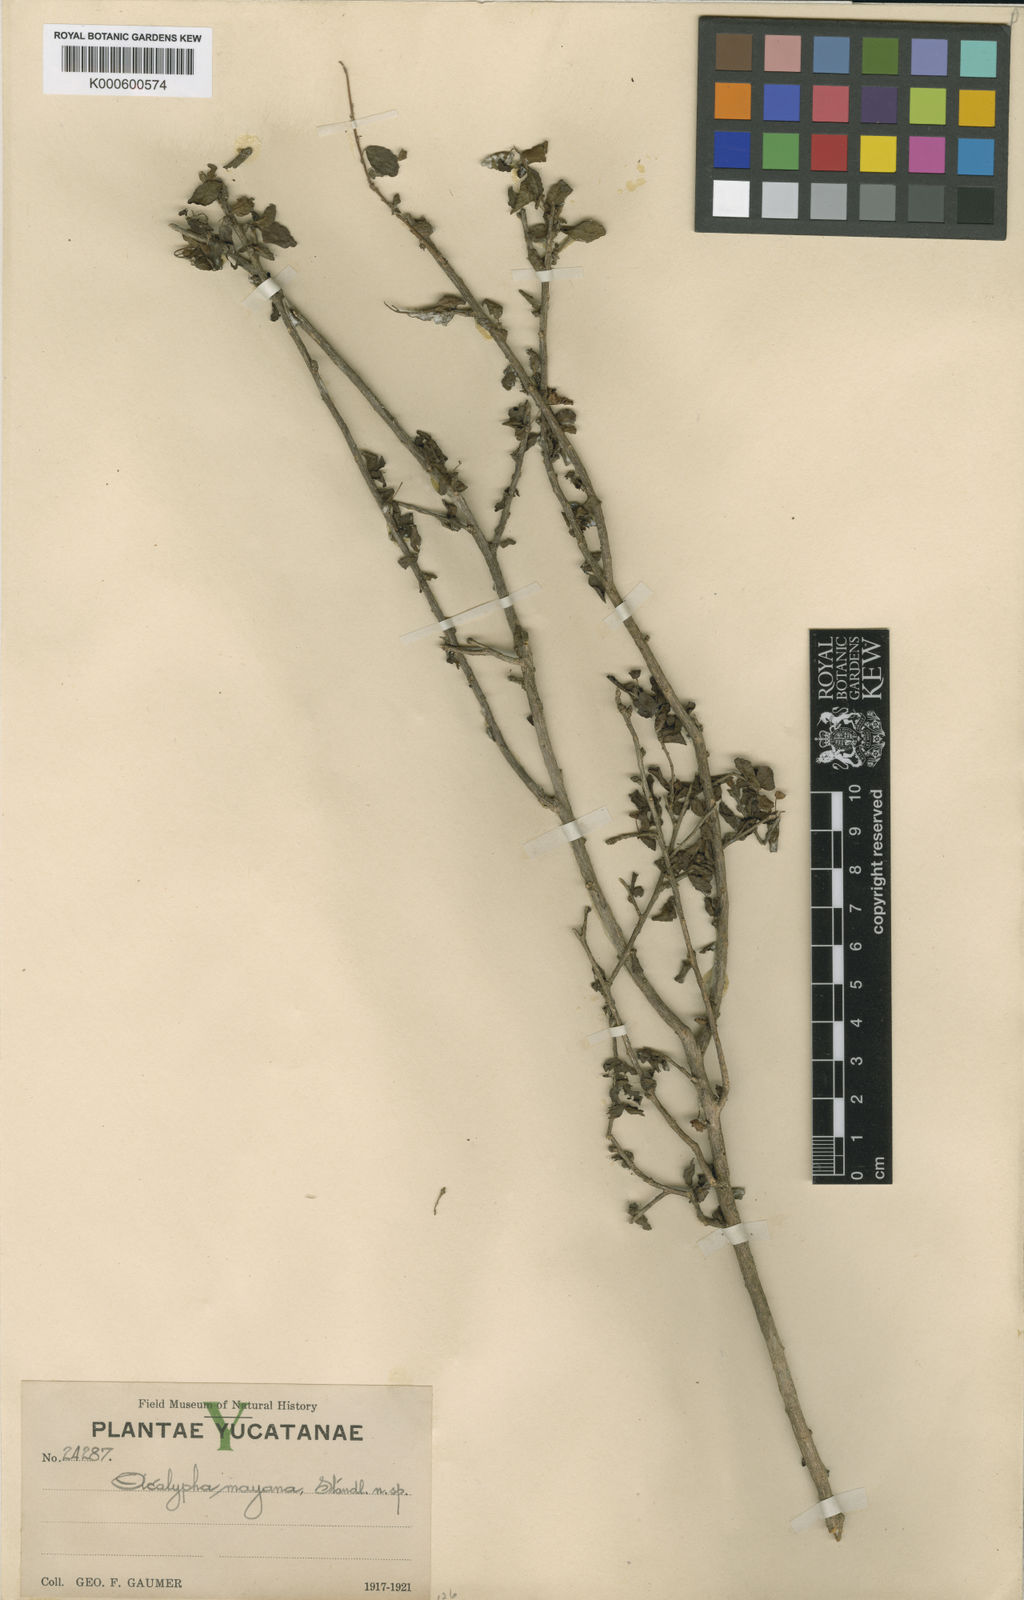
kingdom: Plantae
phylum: Tracheophyta
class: Magnoliopsida
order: Malpighiales
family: Euphorbiaceae
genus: Acalypha
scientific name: Acalypha
